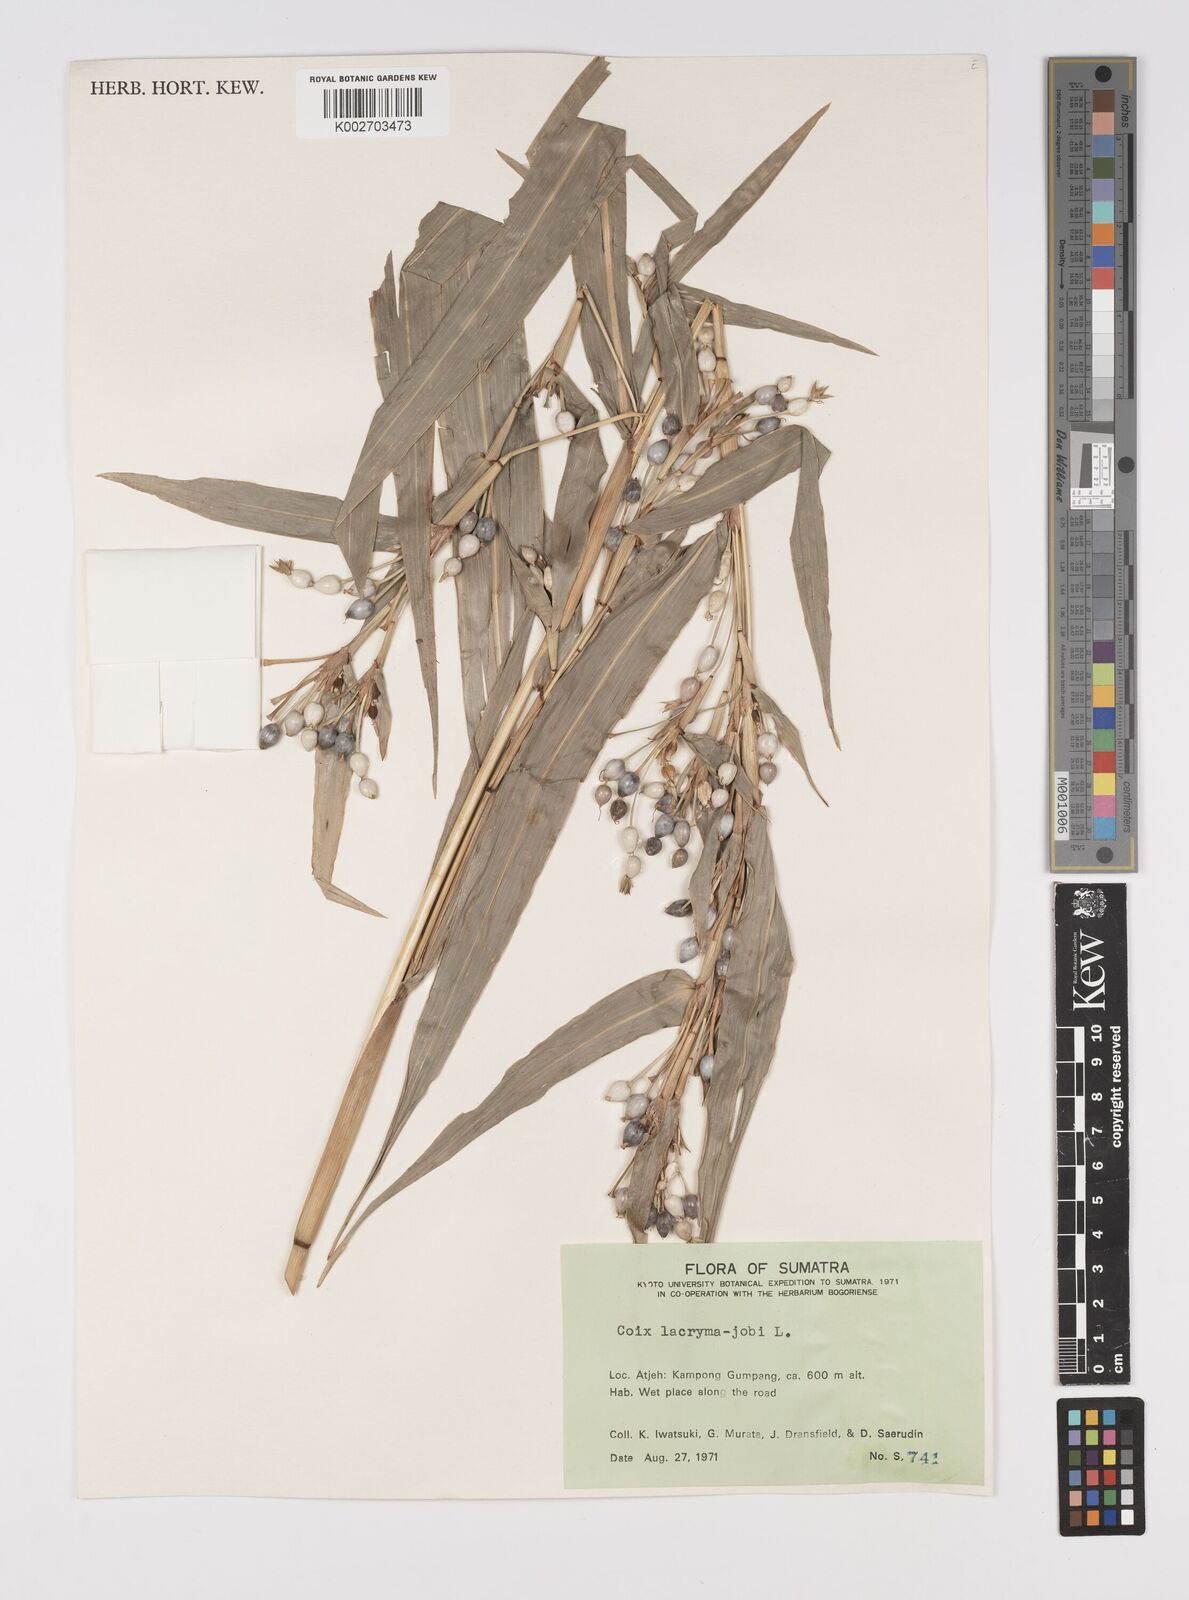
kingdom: Plantae
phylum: Tracheophyta
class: Liliopsida
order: Poales
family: Poaceae
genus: Coix
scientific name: Coix lacryma-jobi
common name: Job's tears
